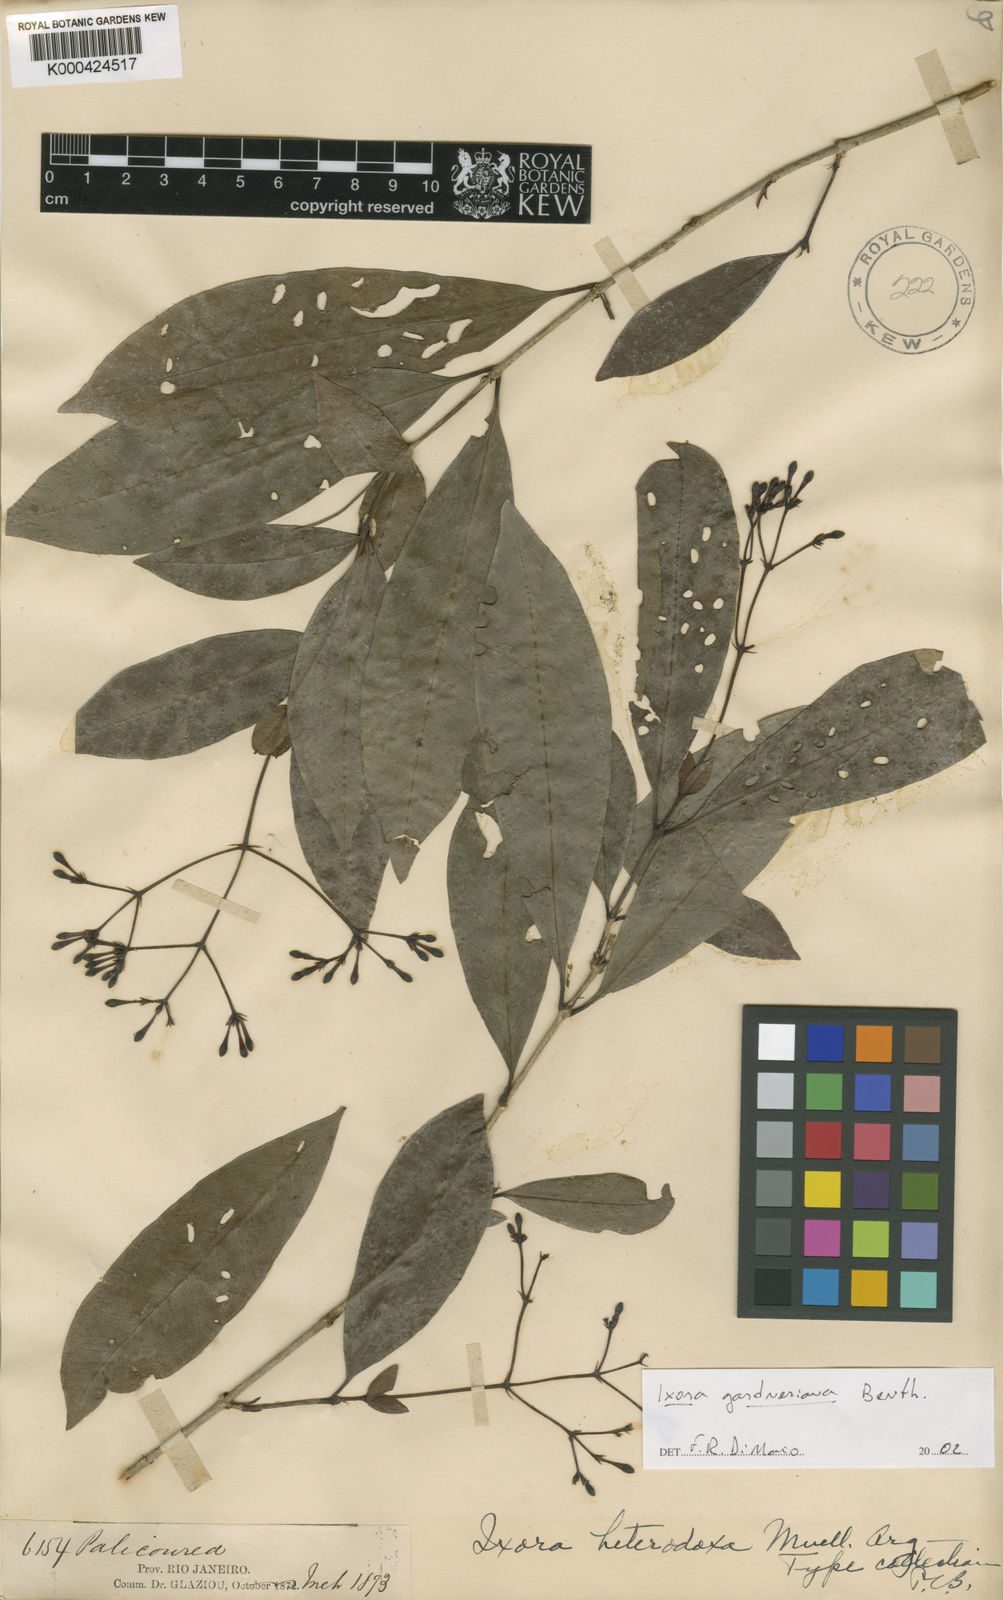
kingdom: Plantae
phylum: Tracheophyta
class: Magnoliopsida
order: Gentianales
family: Rubiaceae
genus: Ixora
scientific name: Ixora gardneriana
